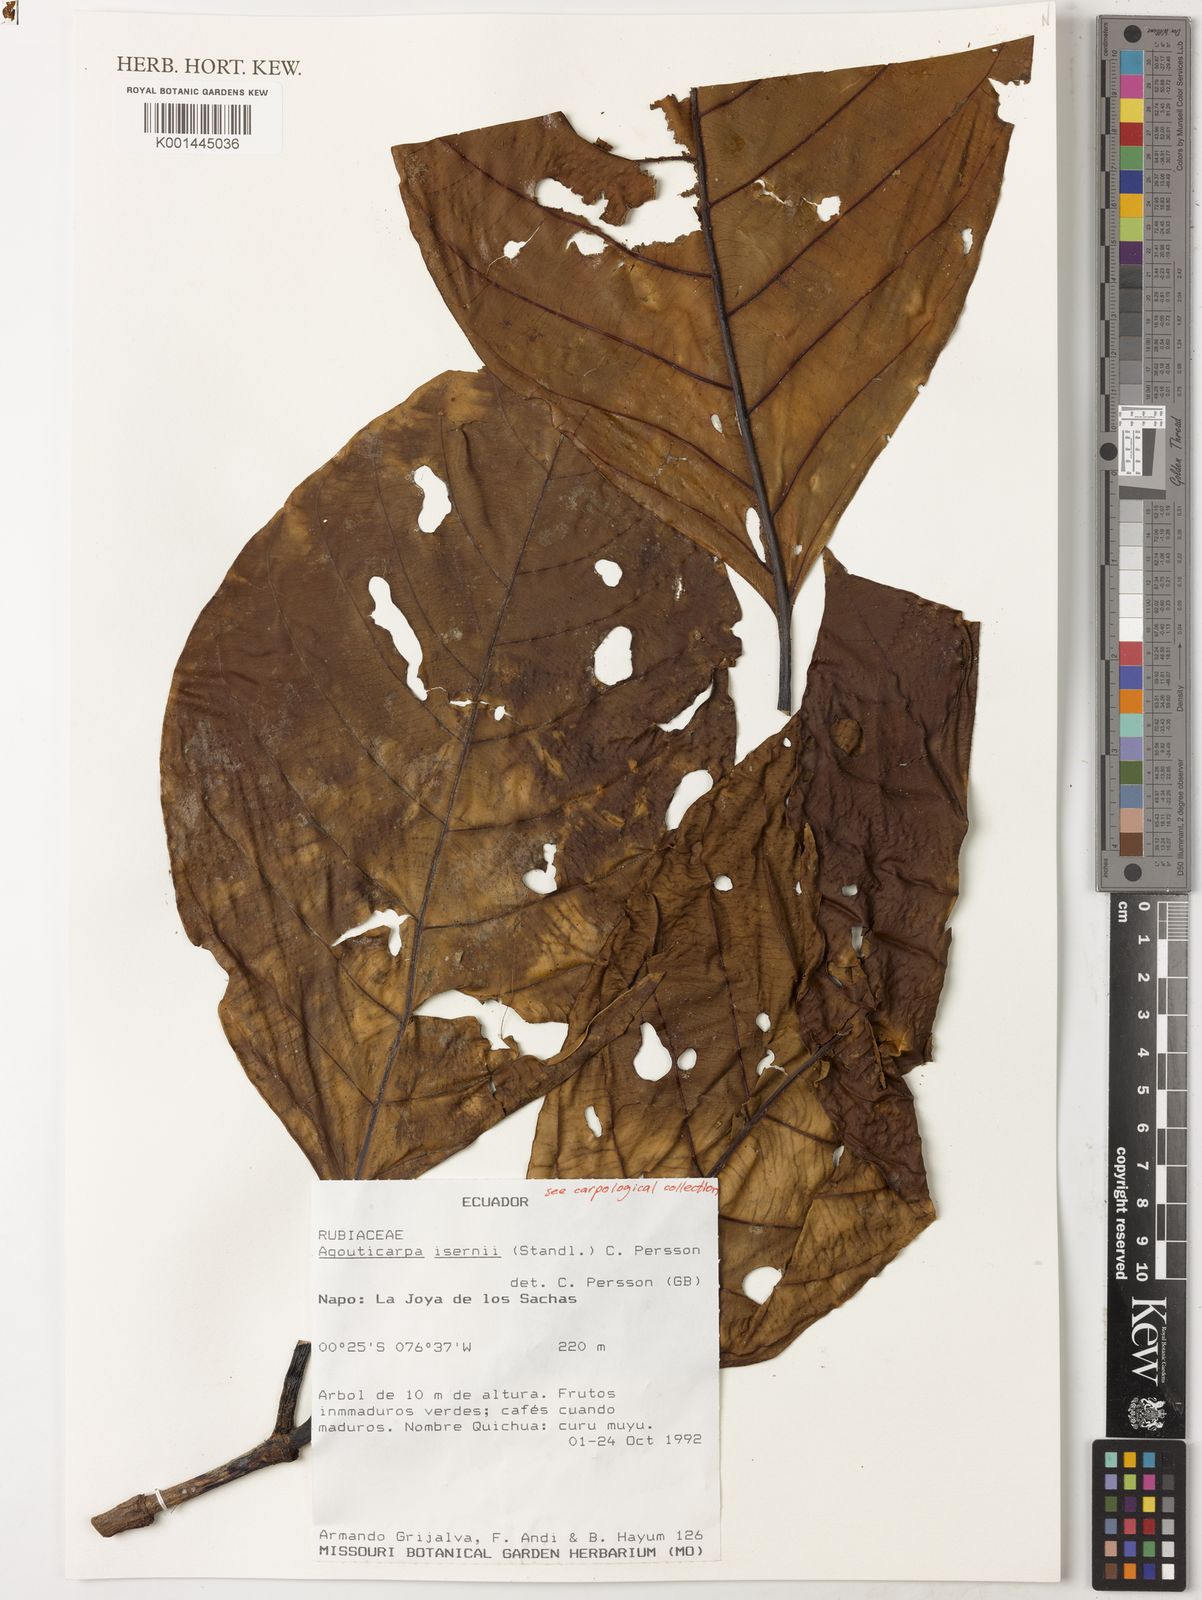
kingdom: Plantae
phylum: Tracheophyta
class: Magnoliopsida
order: Gentianales
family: Rubiaceae
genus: Agouticarpa
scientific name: Agouticarpa isernii
